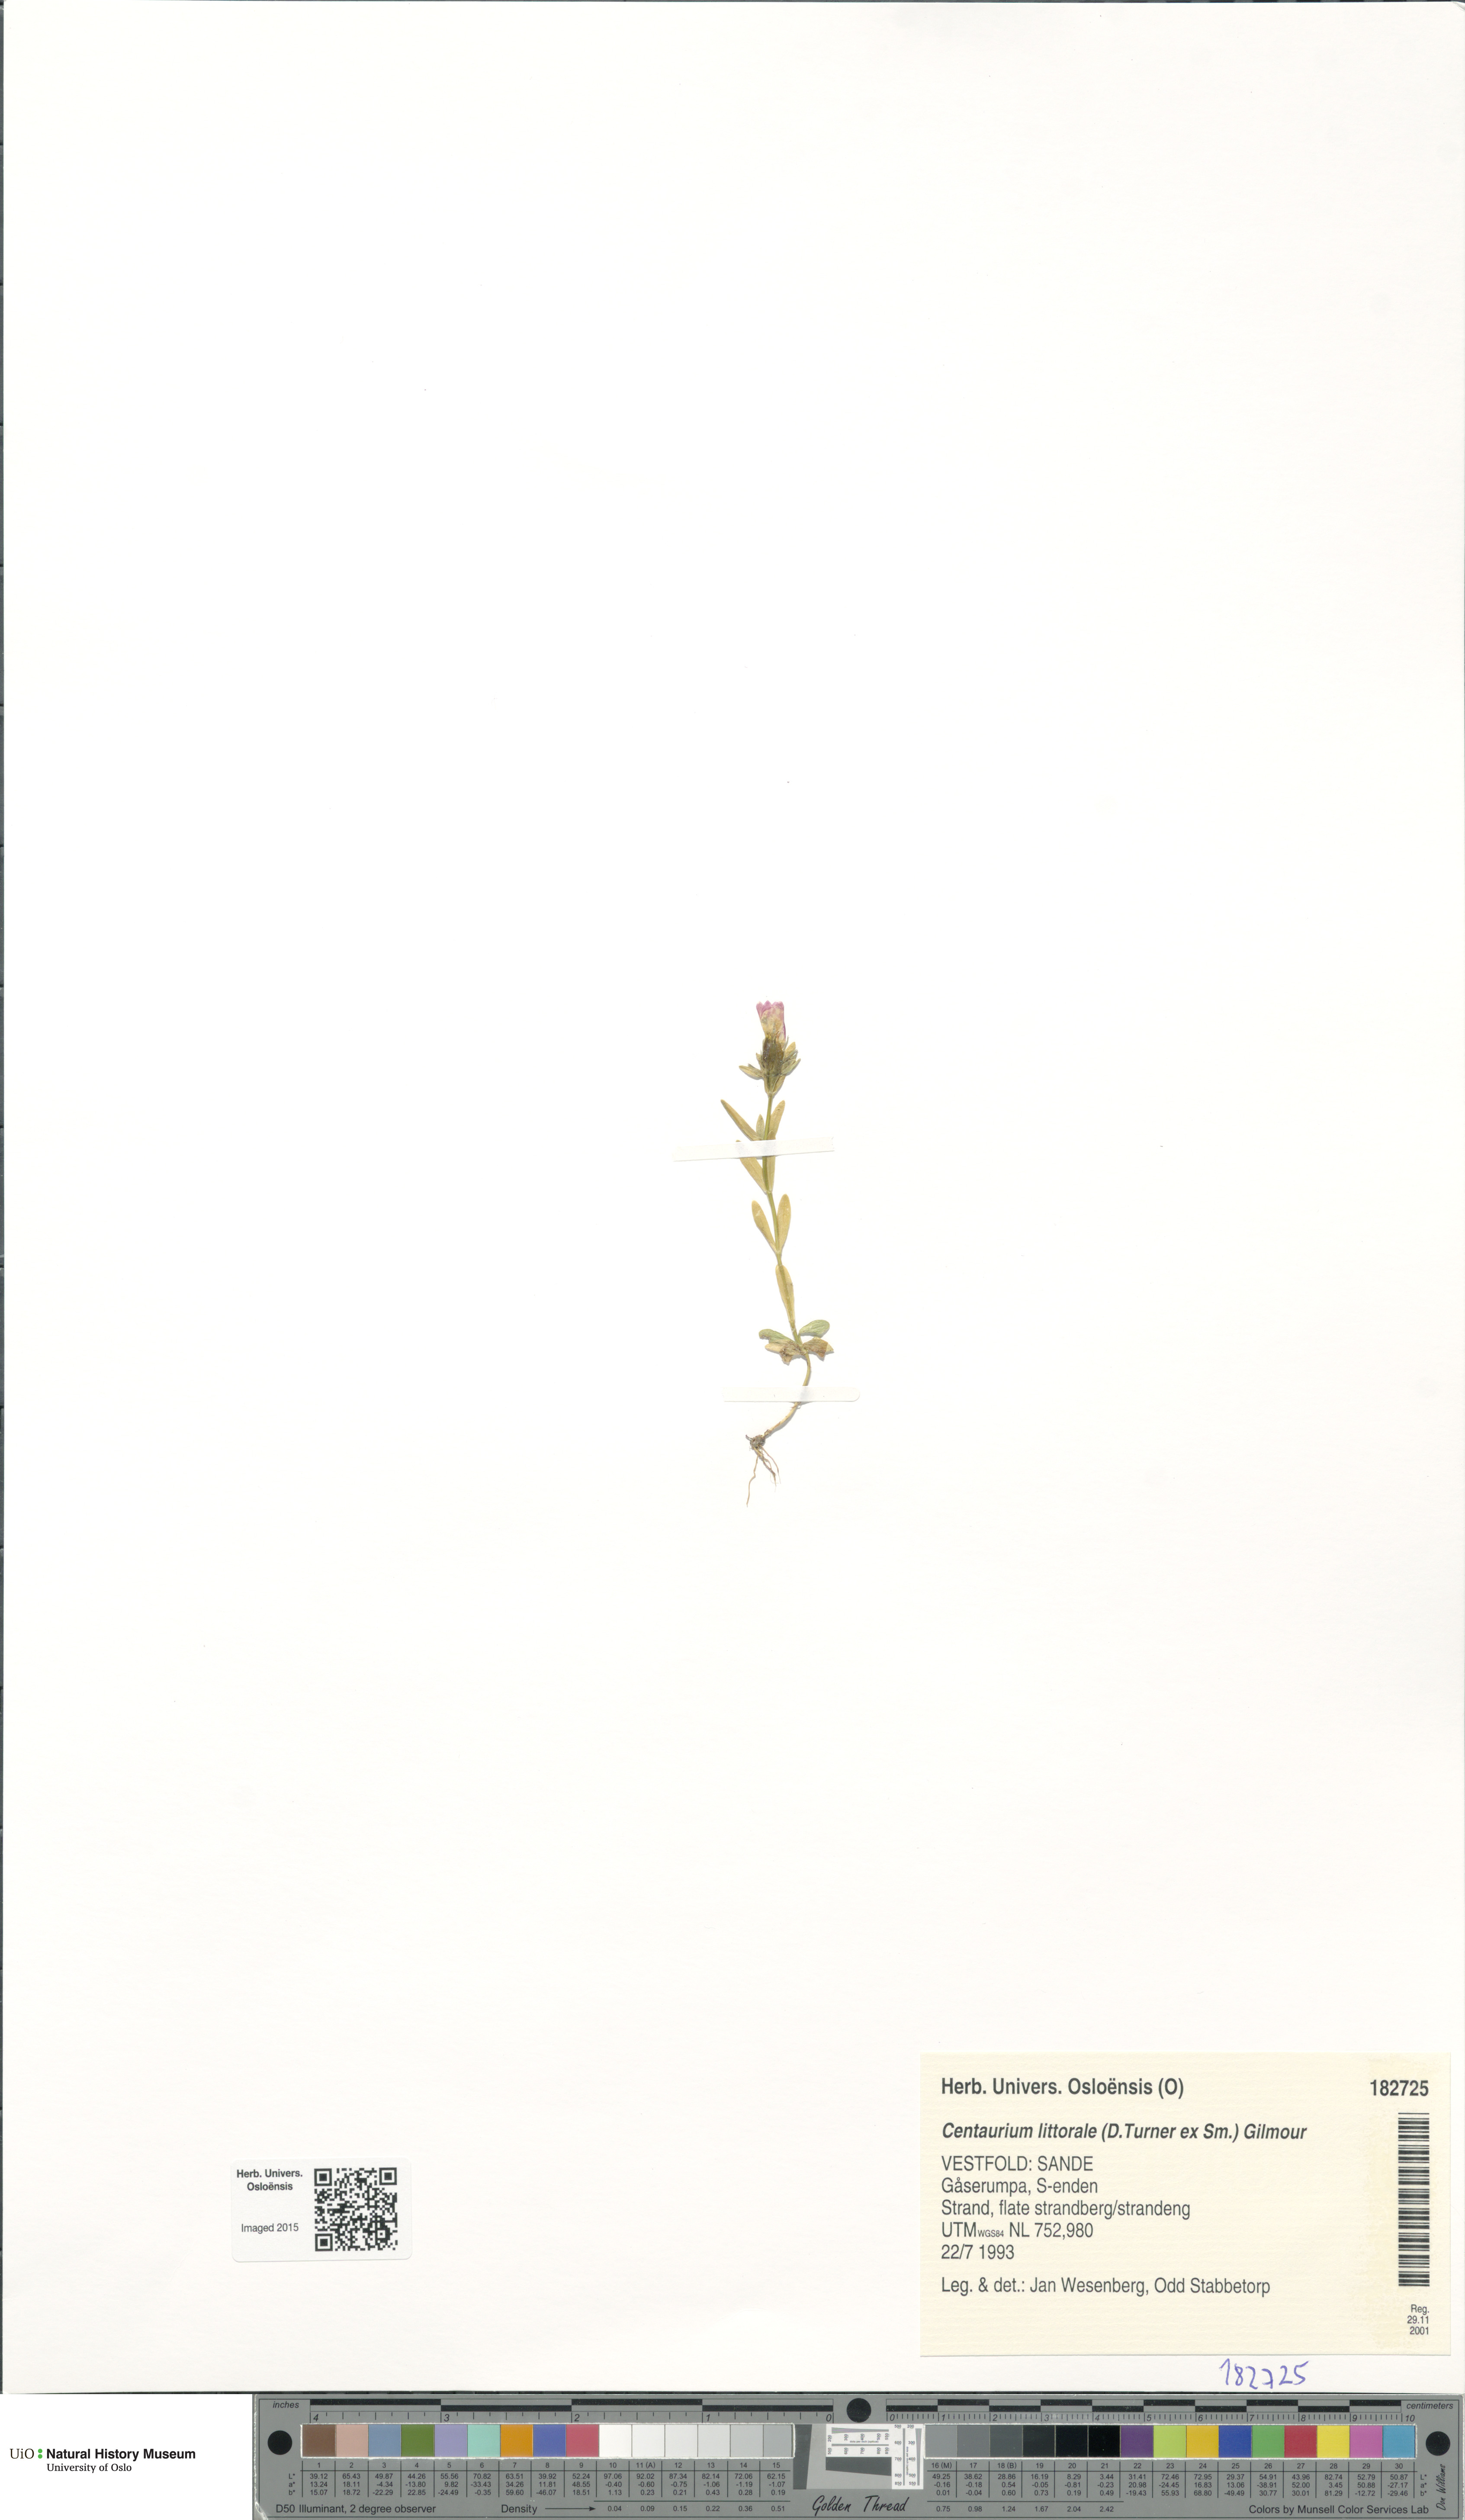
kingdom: Plantae
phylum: Tracheophyta
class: Magnoliopsida
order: Gentianales
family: Gentianaceae
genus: Centaurium
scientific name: Centaurium littorale
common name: Seaside centaury
